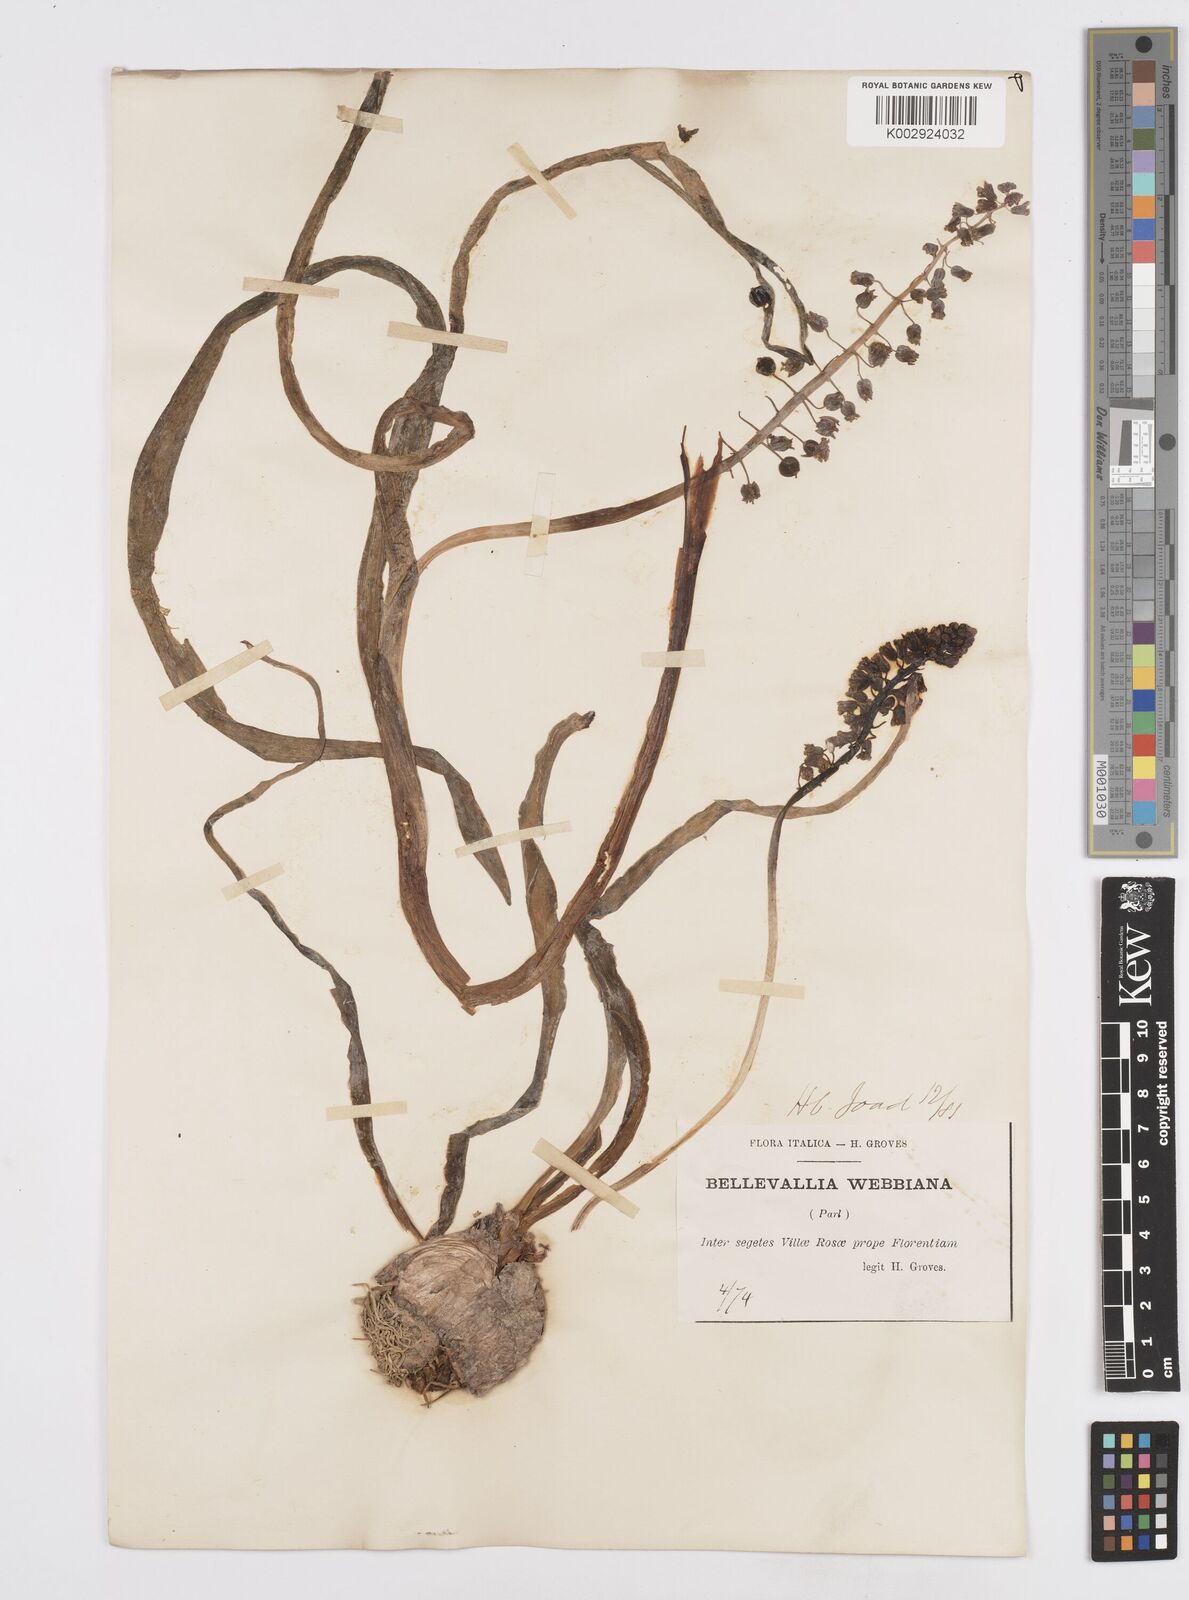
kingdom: Plantae
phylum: Tracheophyta
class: Liliopsida
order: Asparagales
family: Asparagaceae
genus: Bellevalia
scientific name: Bellevalia dubia
